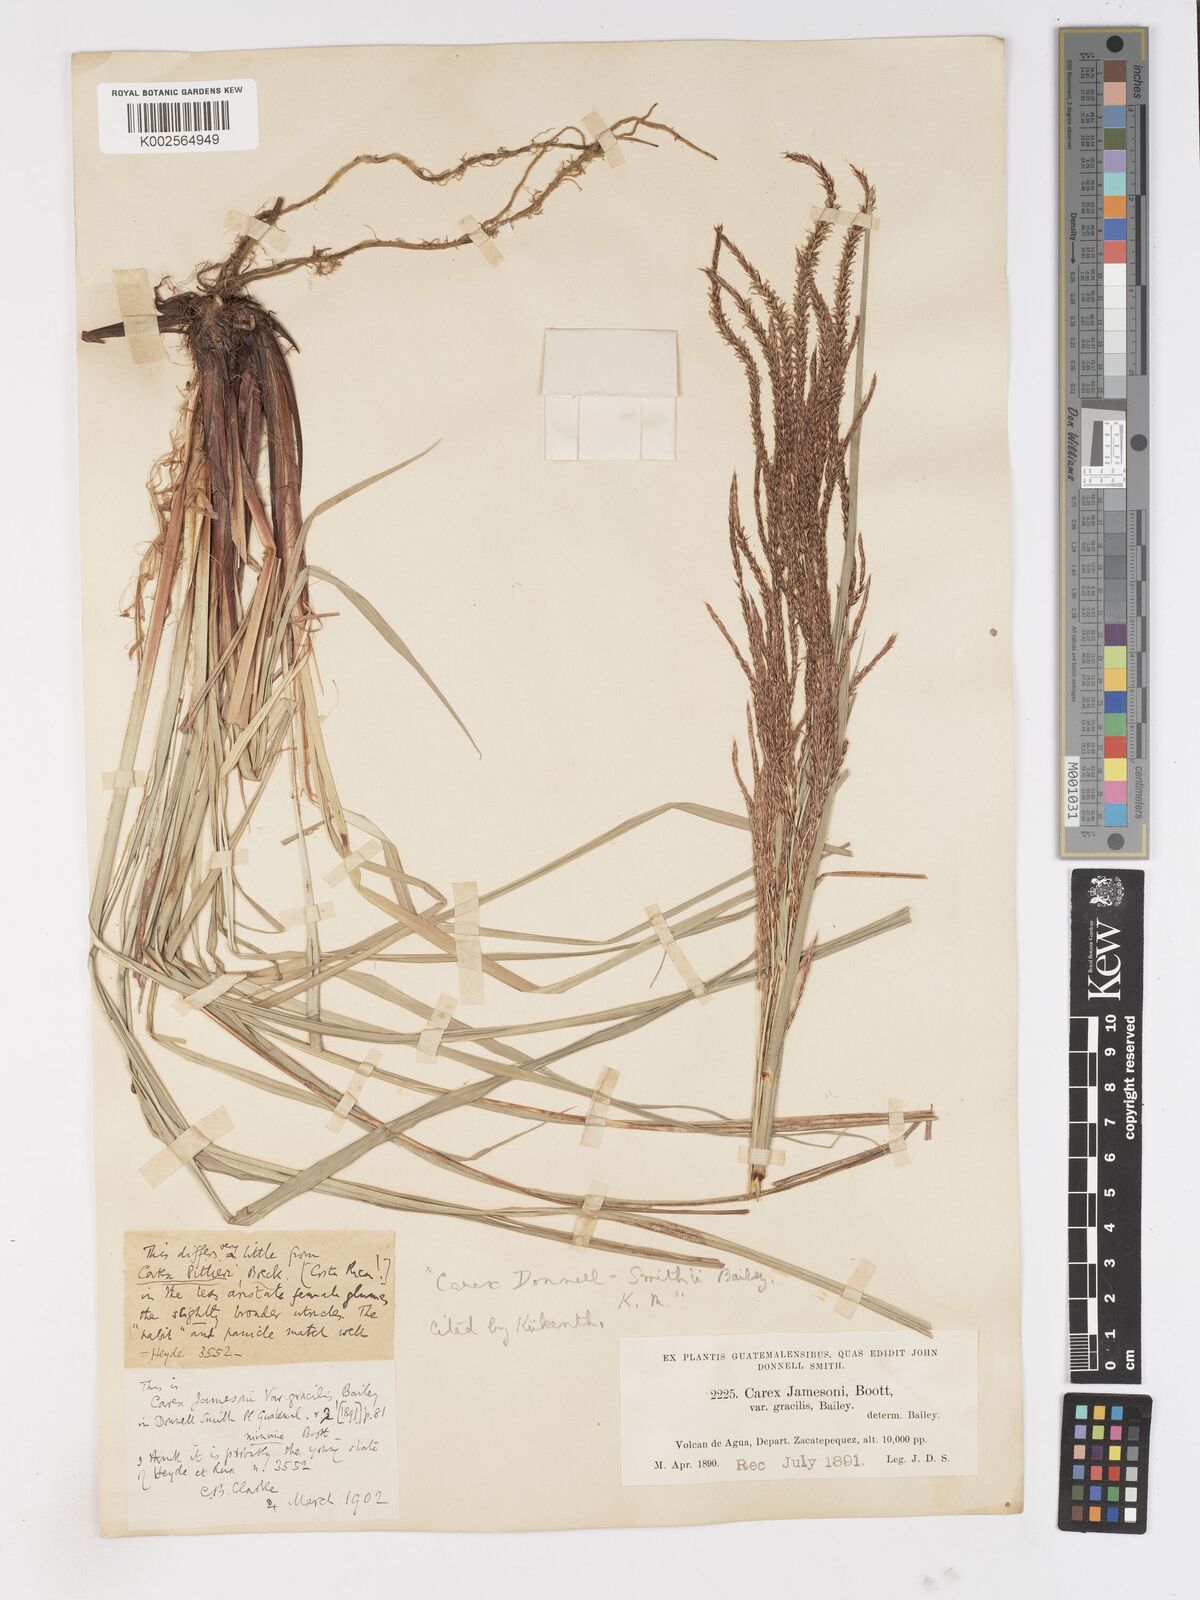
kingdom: Plantae
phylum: Tracheophyta
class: Liliopsida
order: Poales
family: Cyperaceae
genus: Carex
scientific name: Carex donnell-smithii
